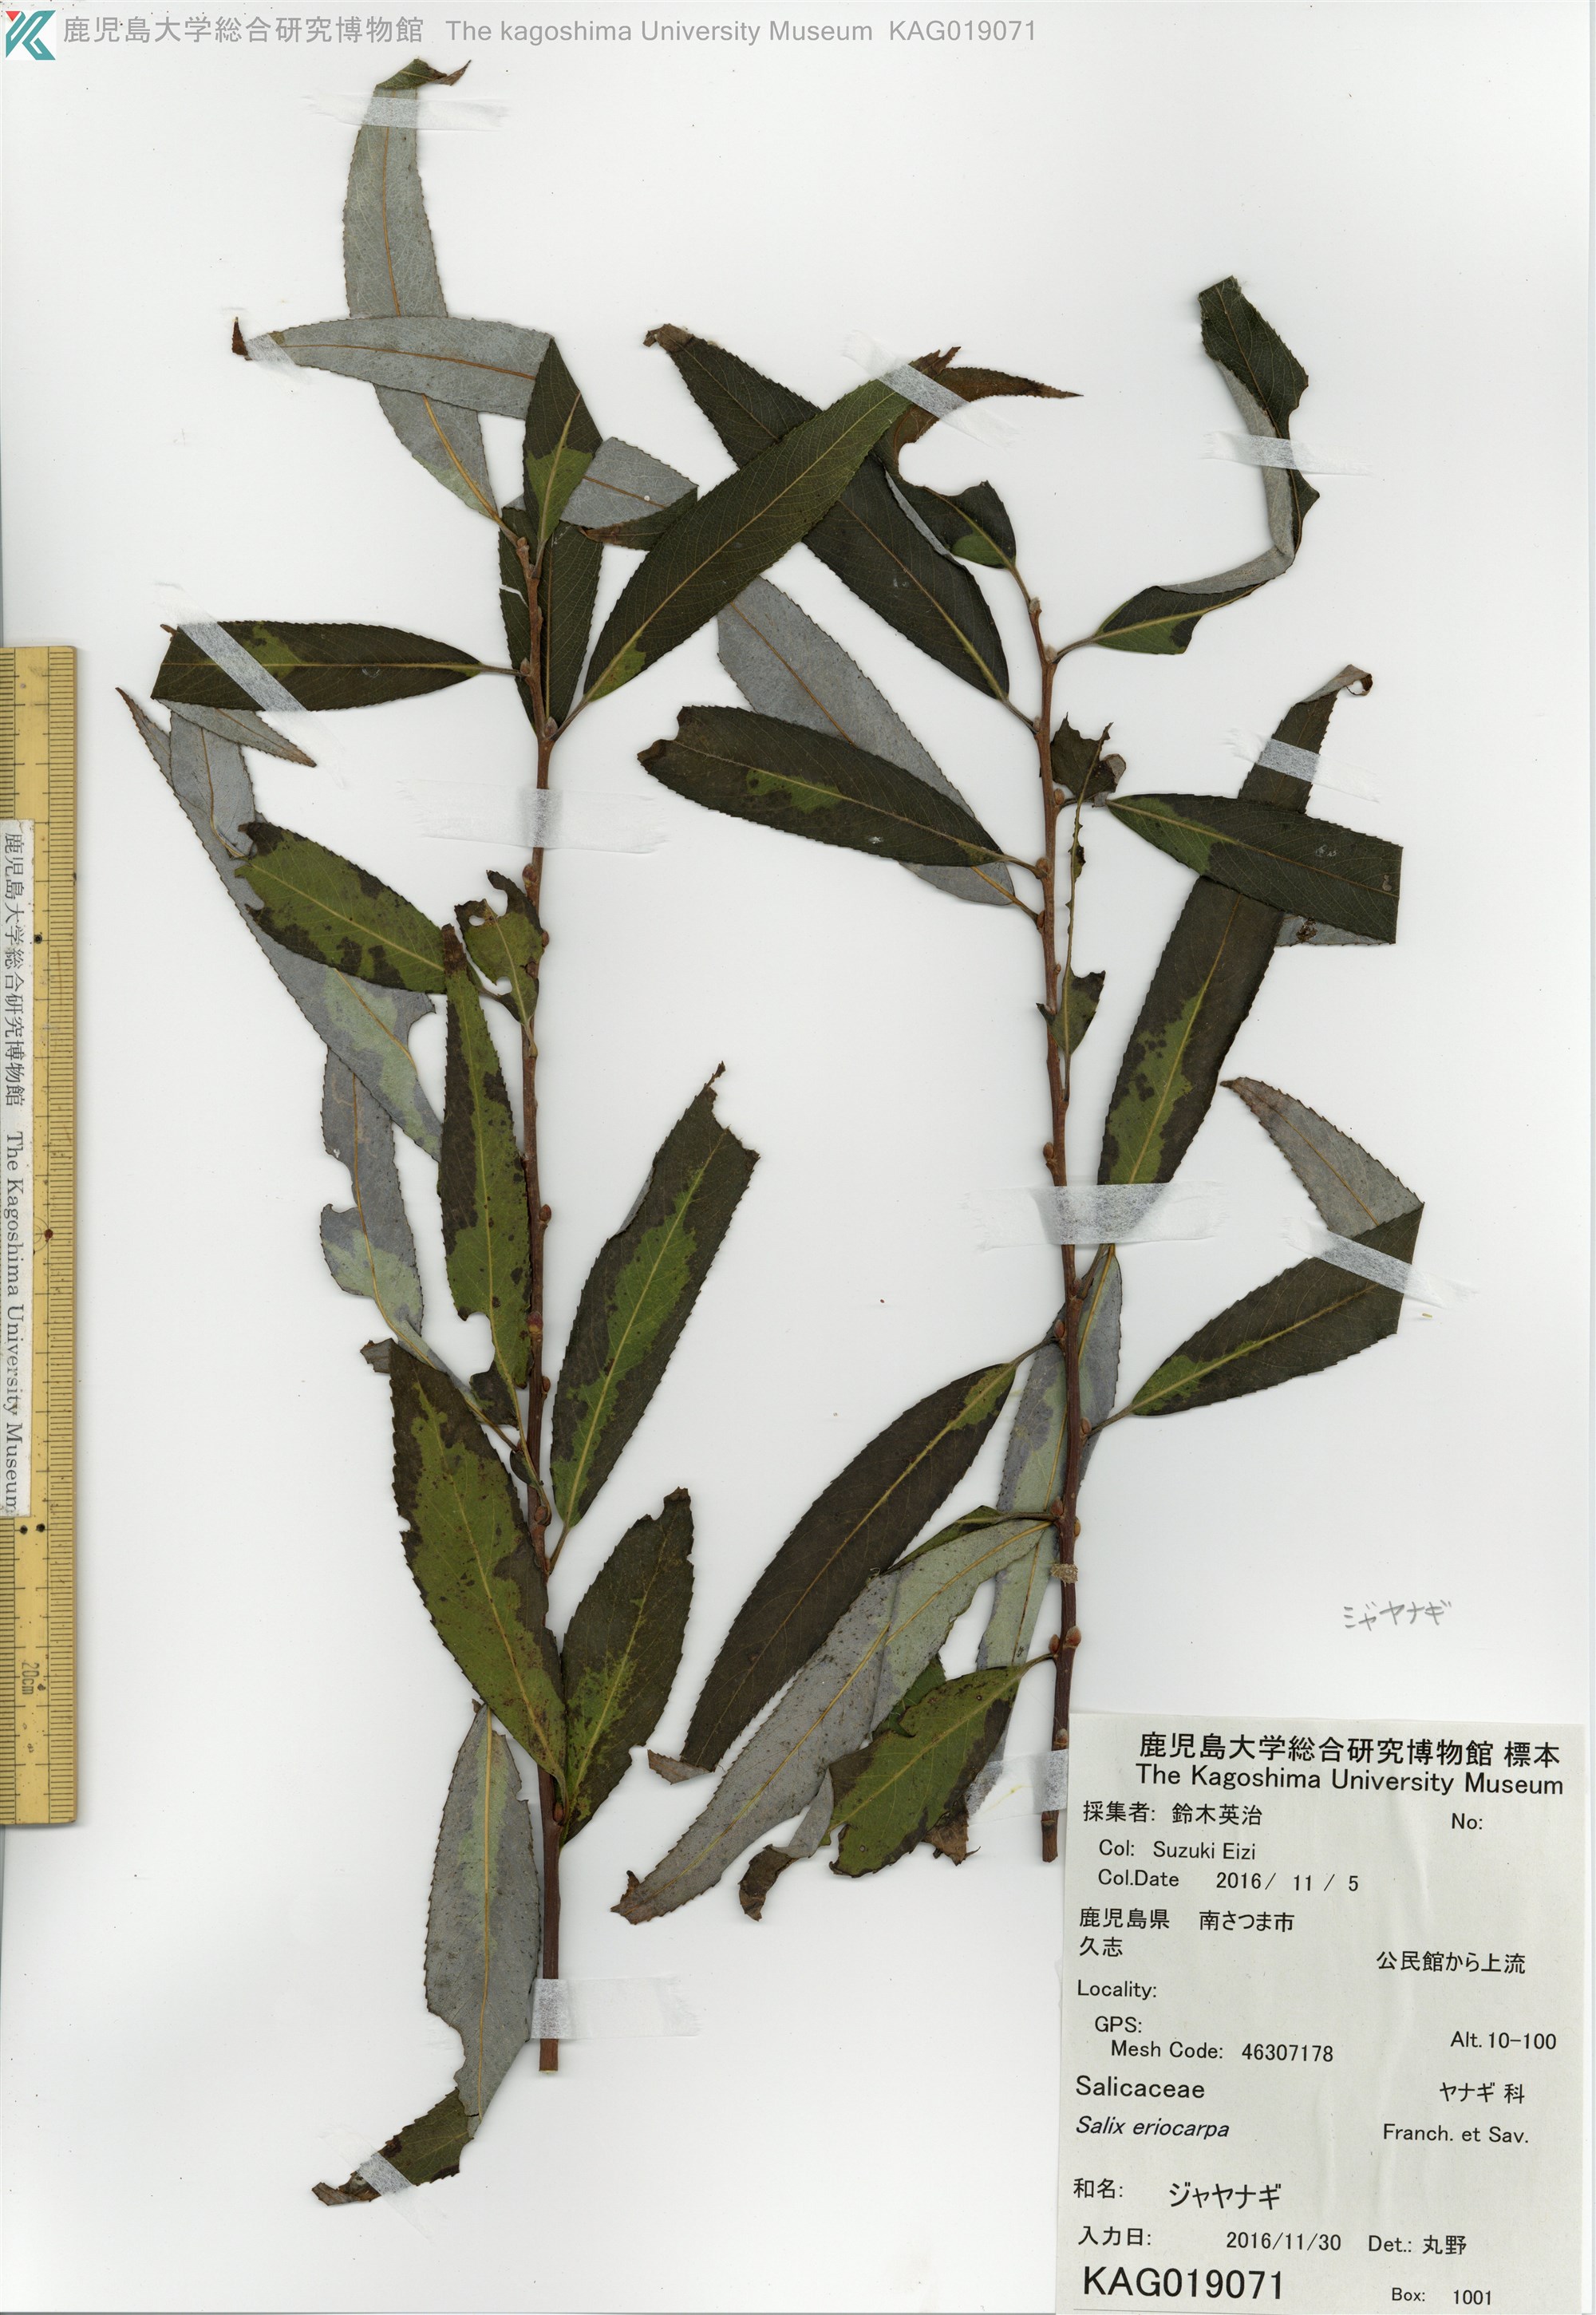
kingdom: Plantae
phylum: Tracheophyta
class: Magnoliopsida
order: Malpighiales
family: Salicaceae
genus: Salix
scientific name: Salix pierotii
